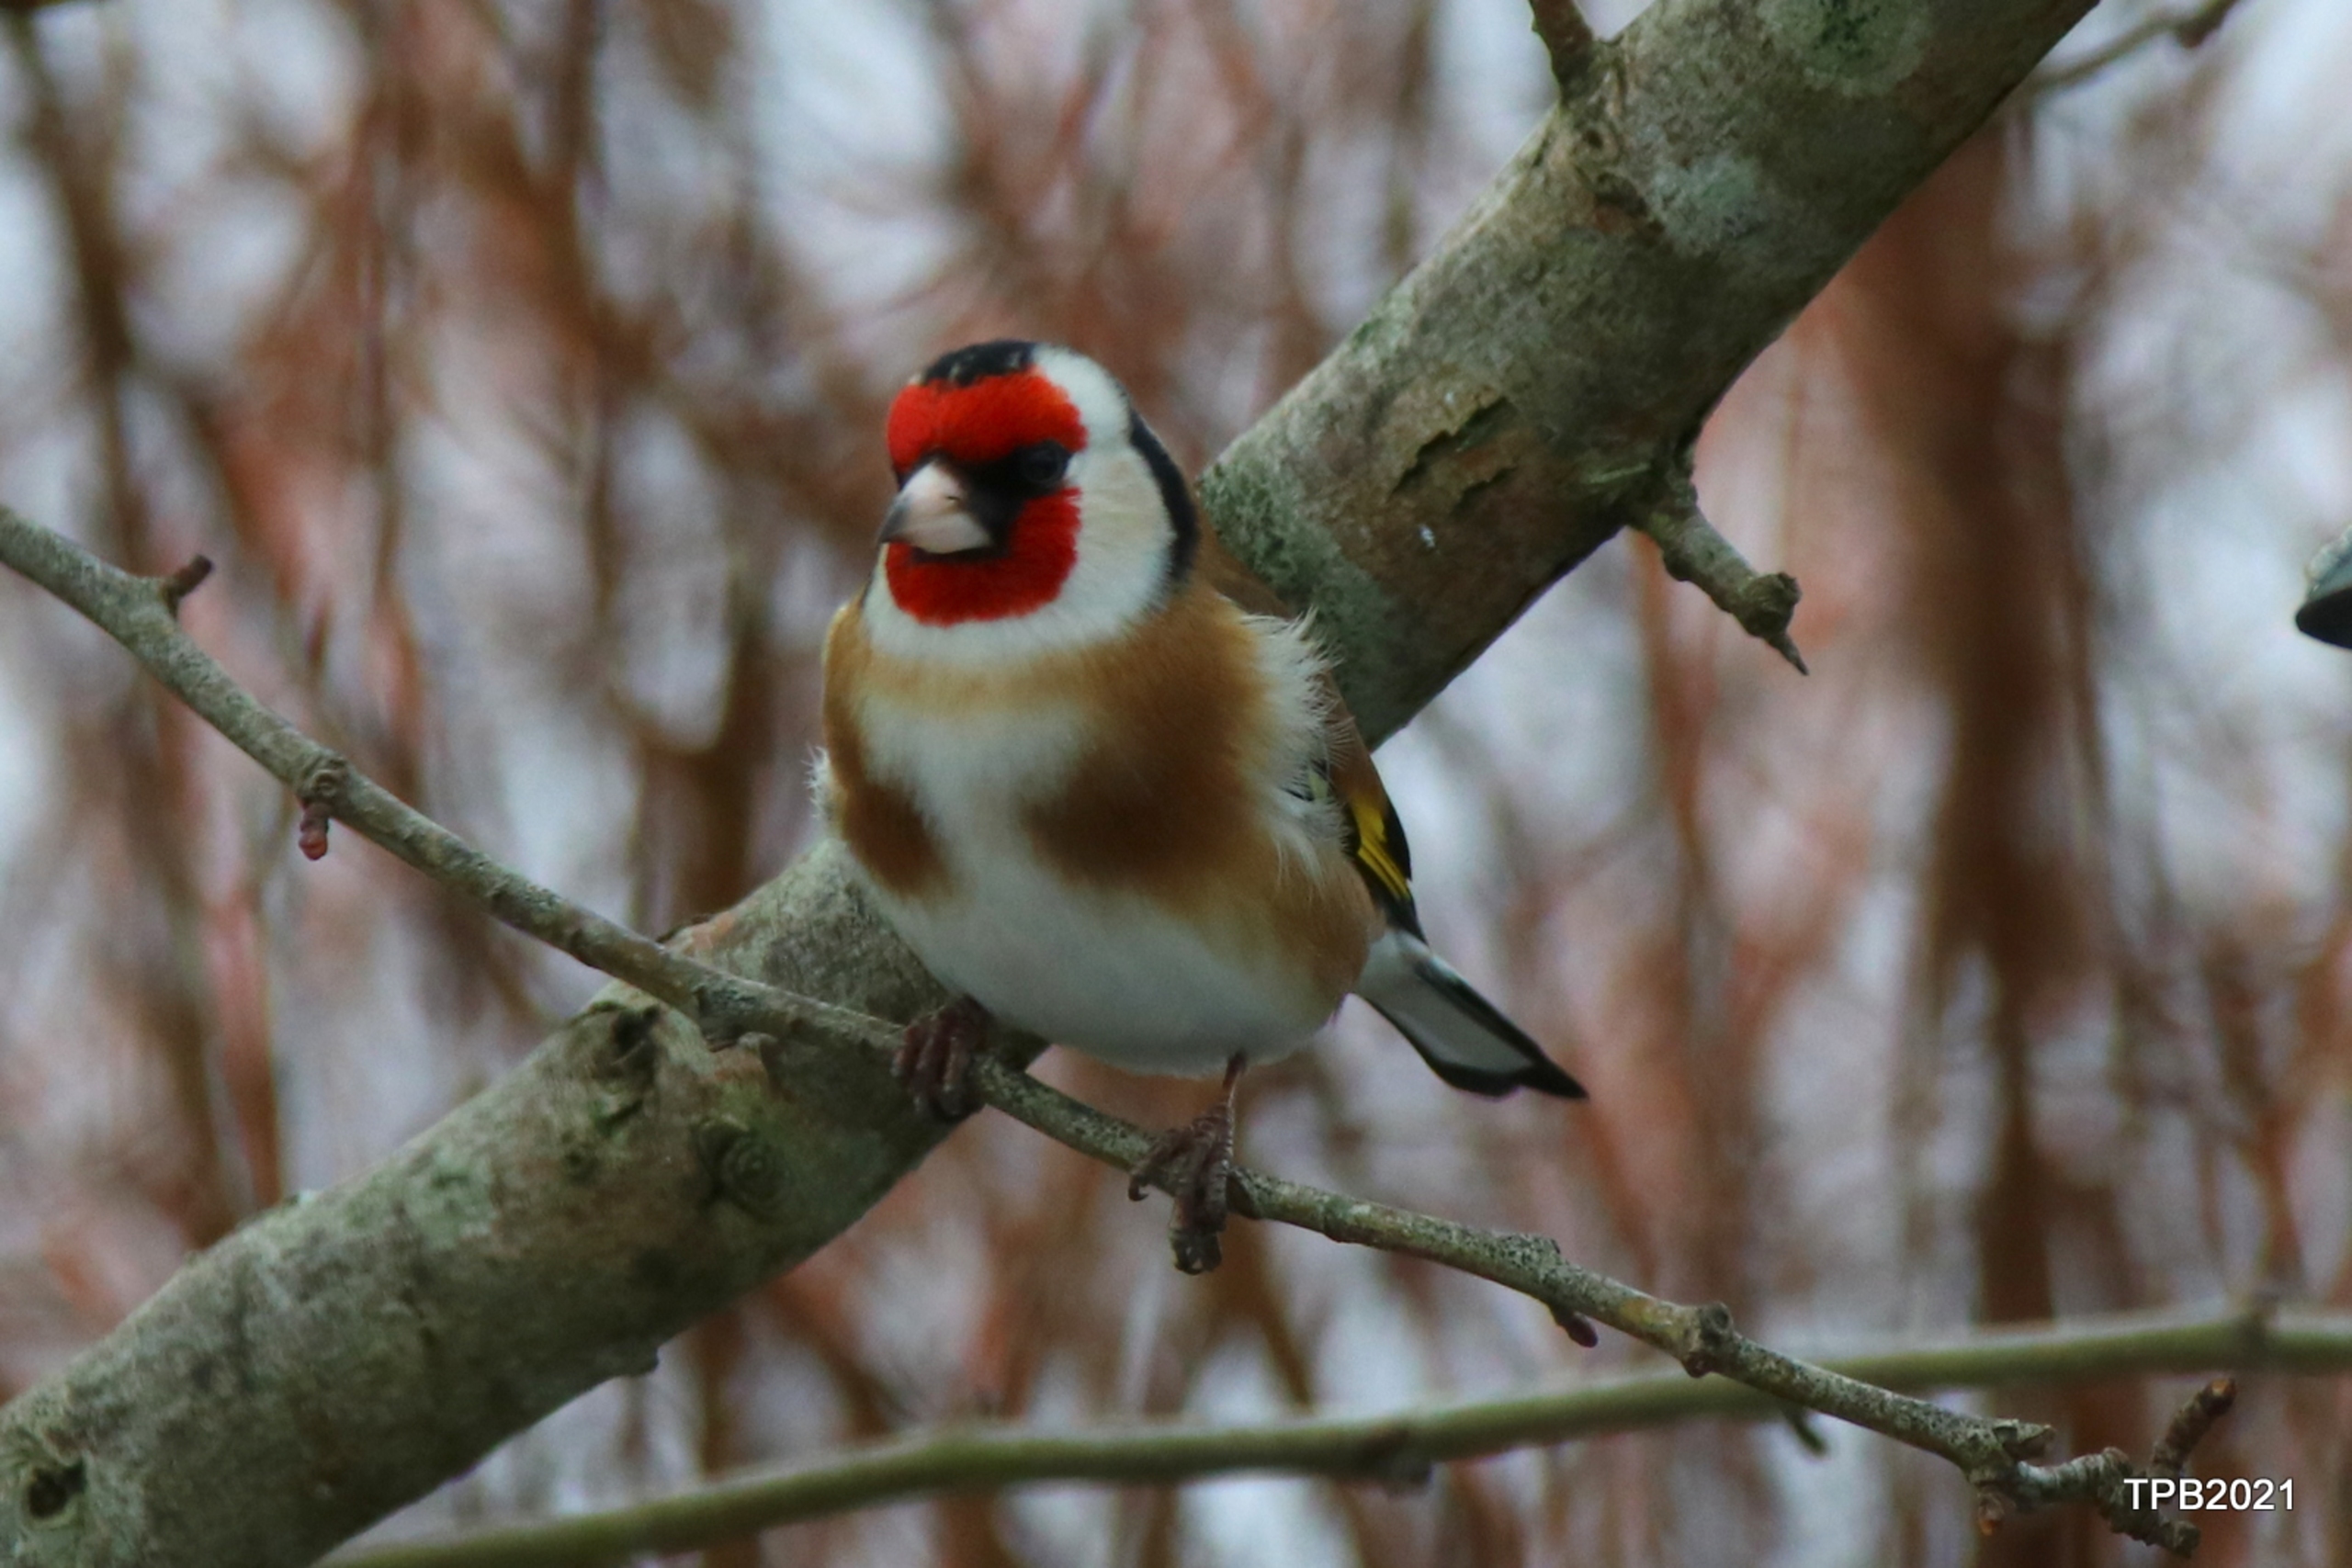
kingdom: Animalia
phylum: Chordata
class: Aves
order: Passeriformes
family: Fringillidae
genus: Carduelis
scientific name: Carduelis carduelis
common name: Stillits
